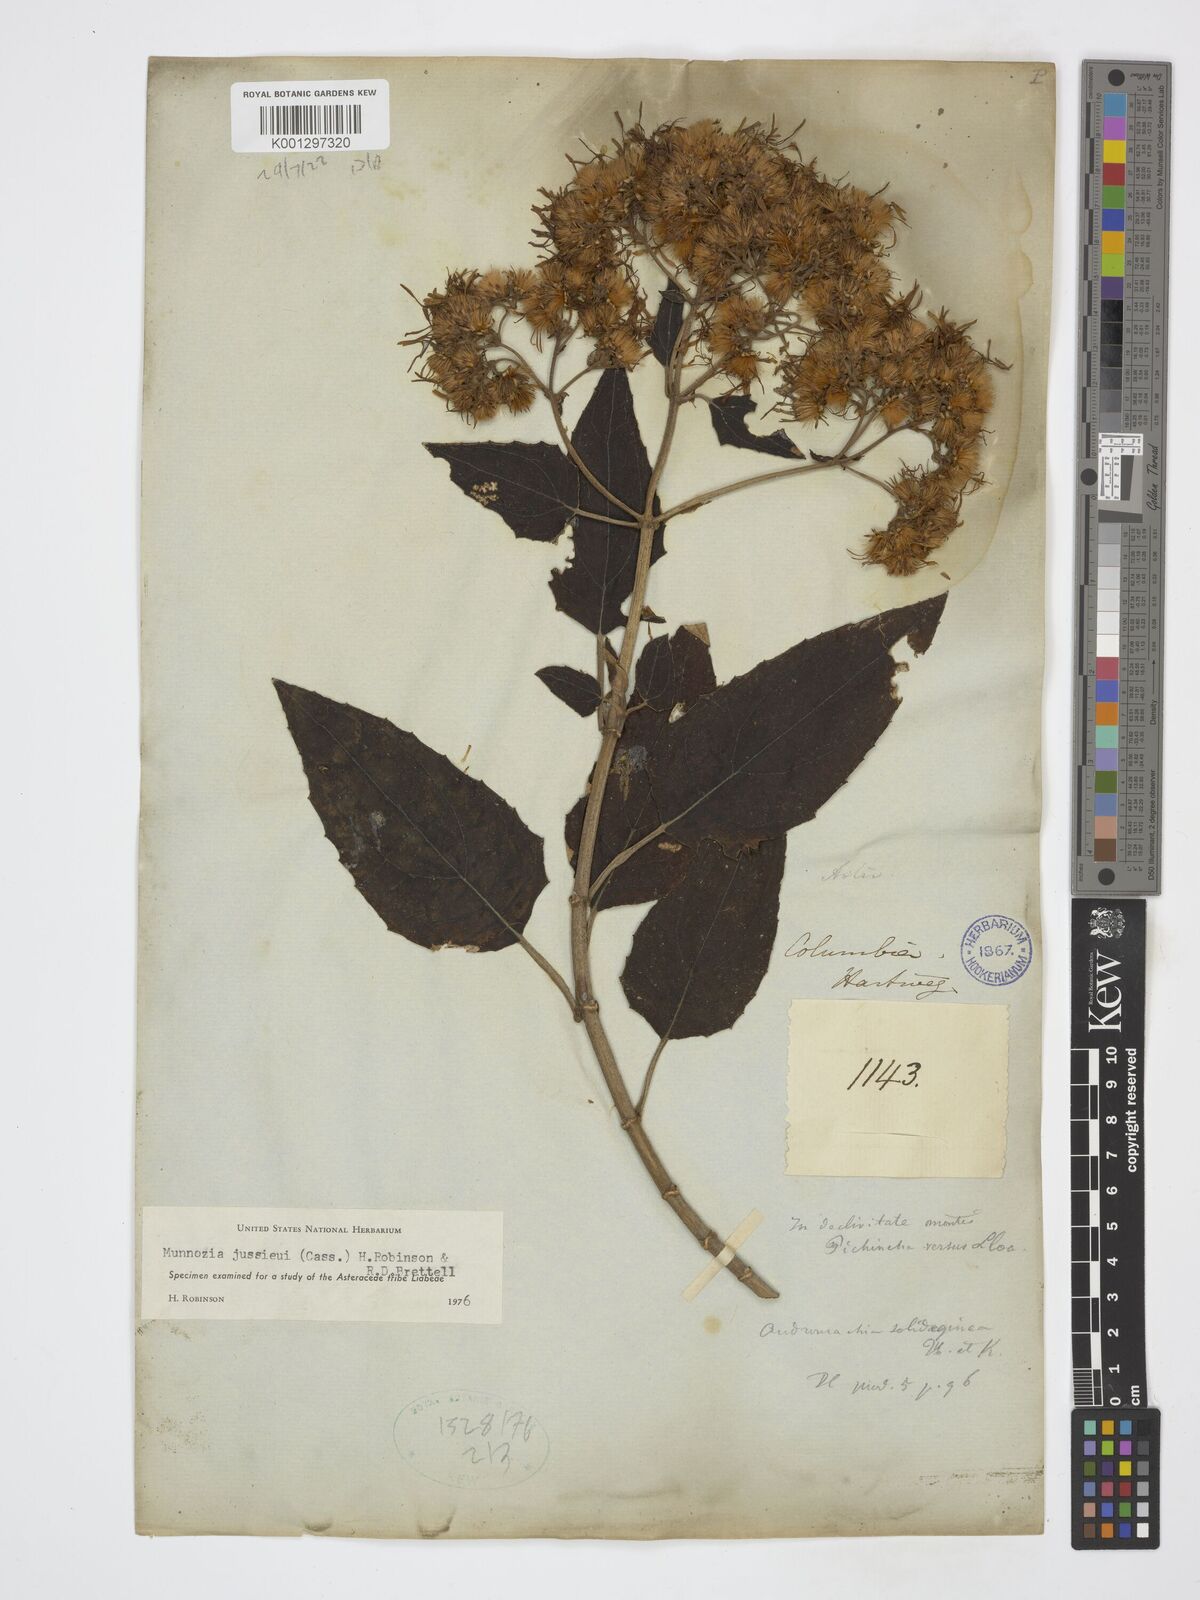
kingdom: Plantae
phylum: Tracheophyta
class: Magnoliopsida
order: Asterales
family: Asteraceae
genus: Munnozia
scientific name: Munnozia jussieui
